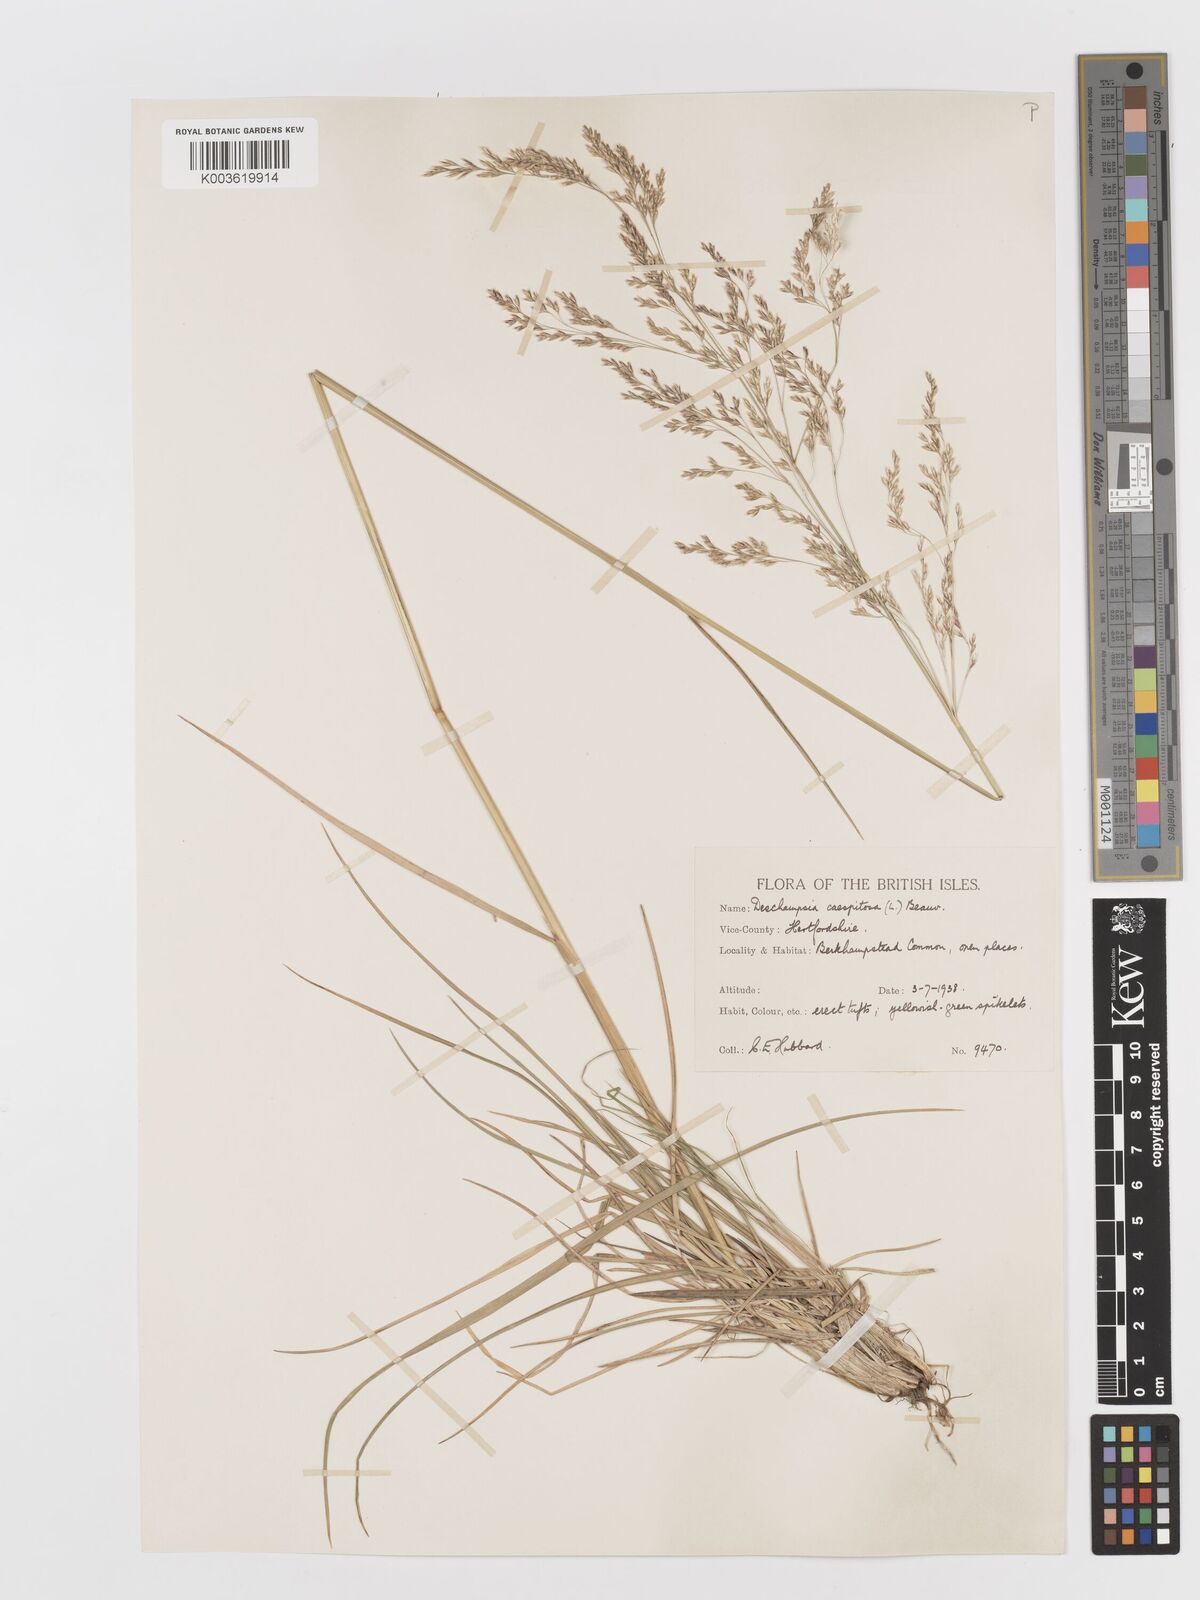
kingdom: Plantae
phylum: Tracheophyta
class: Liliopsida
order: Poales
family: Poaceae
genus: Deschampsia
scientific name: Deschampsia cespitosa
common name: Tufted hair-grass
